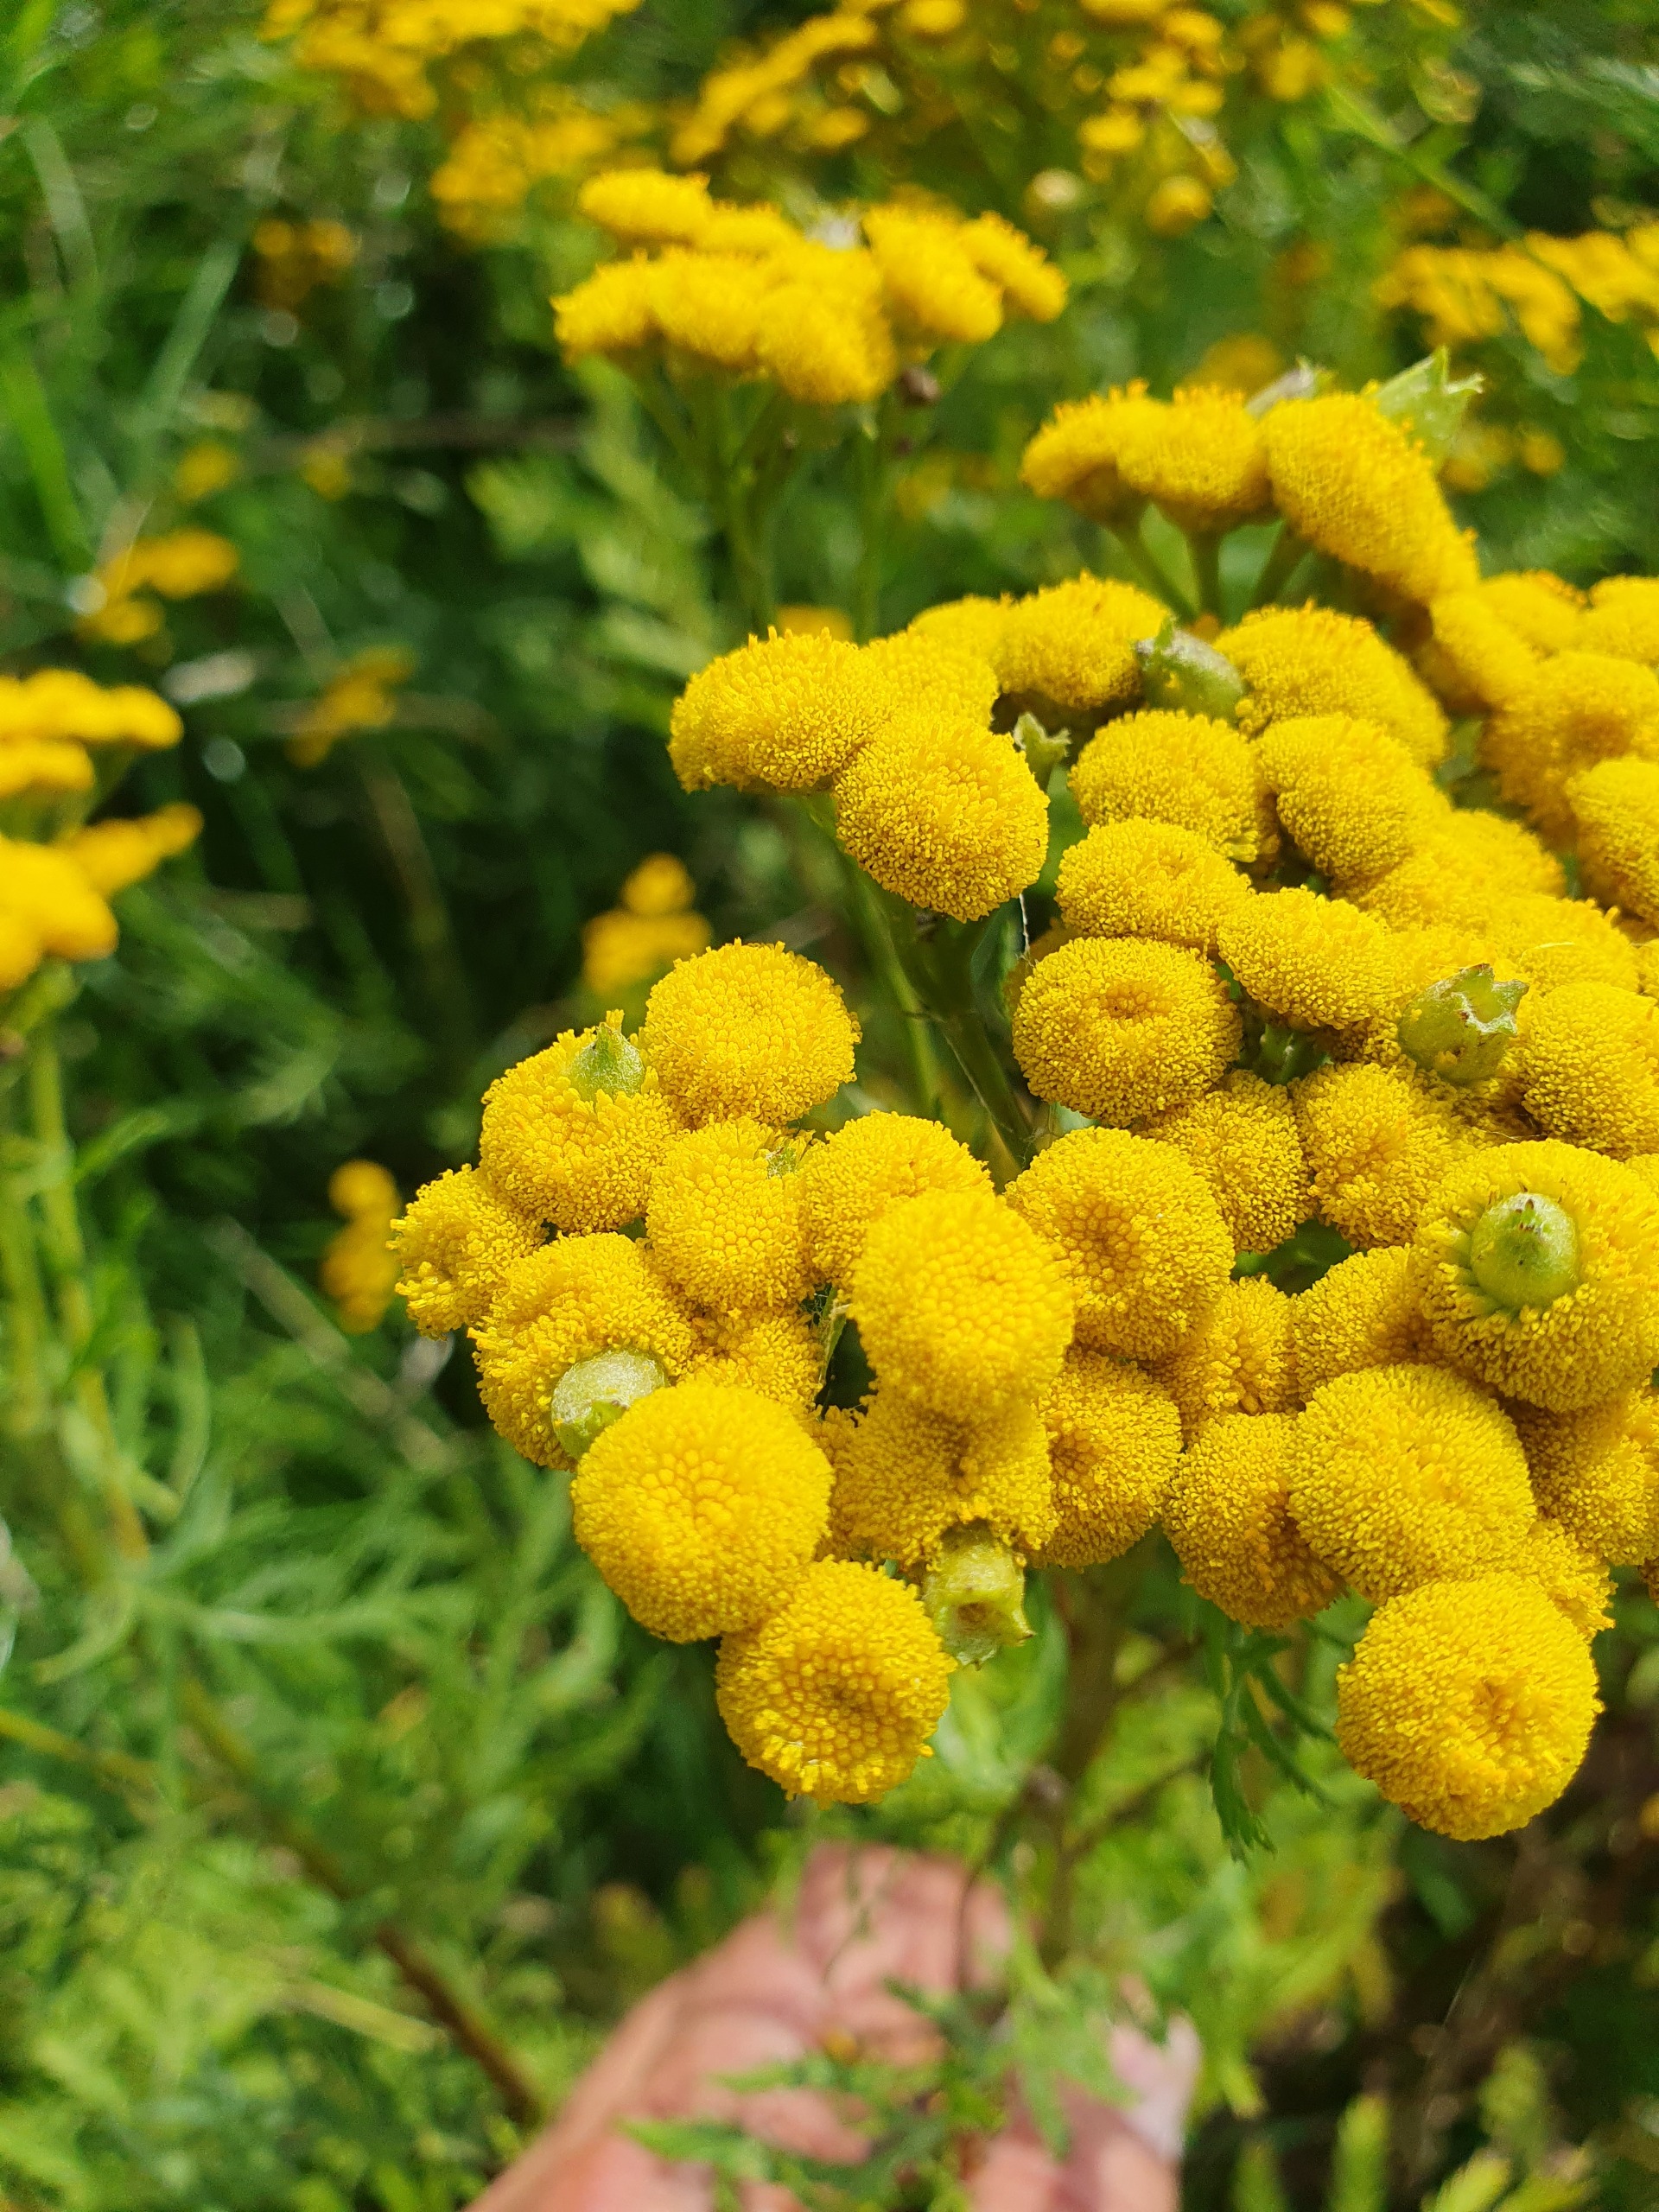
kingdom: Animalia
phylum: Arthropoda
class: Insecta
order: Diptera
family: Cecidomyiidae
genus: Rhopalomyia
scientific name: Rhopalomyia tanaceticolus
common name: Rejnfangalmyg
